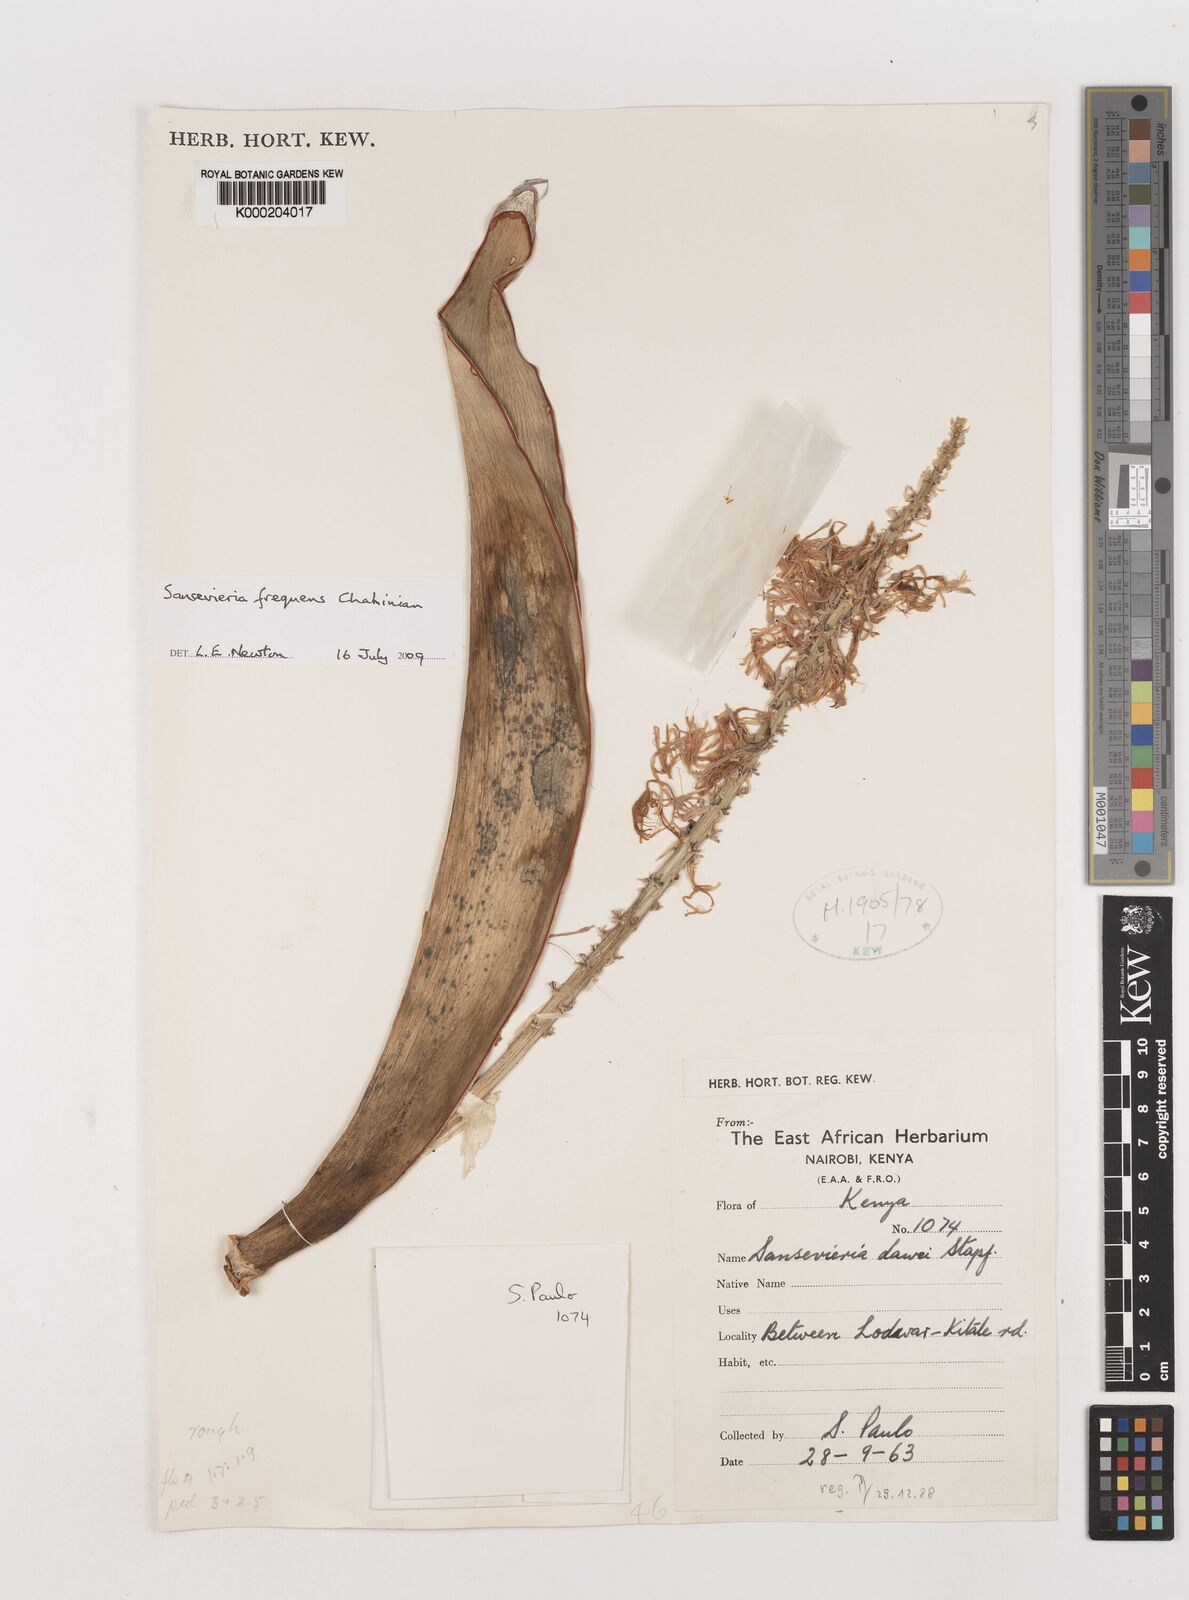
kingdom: Plantae
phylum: Tracheophyta
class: Liliopsida
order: Asparagales
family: Asparagaceae
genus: Dracaena
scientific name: Dracaena frequens
